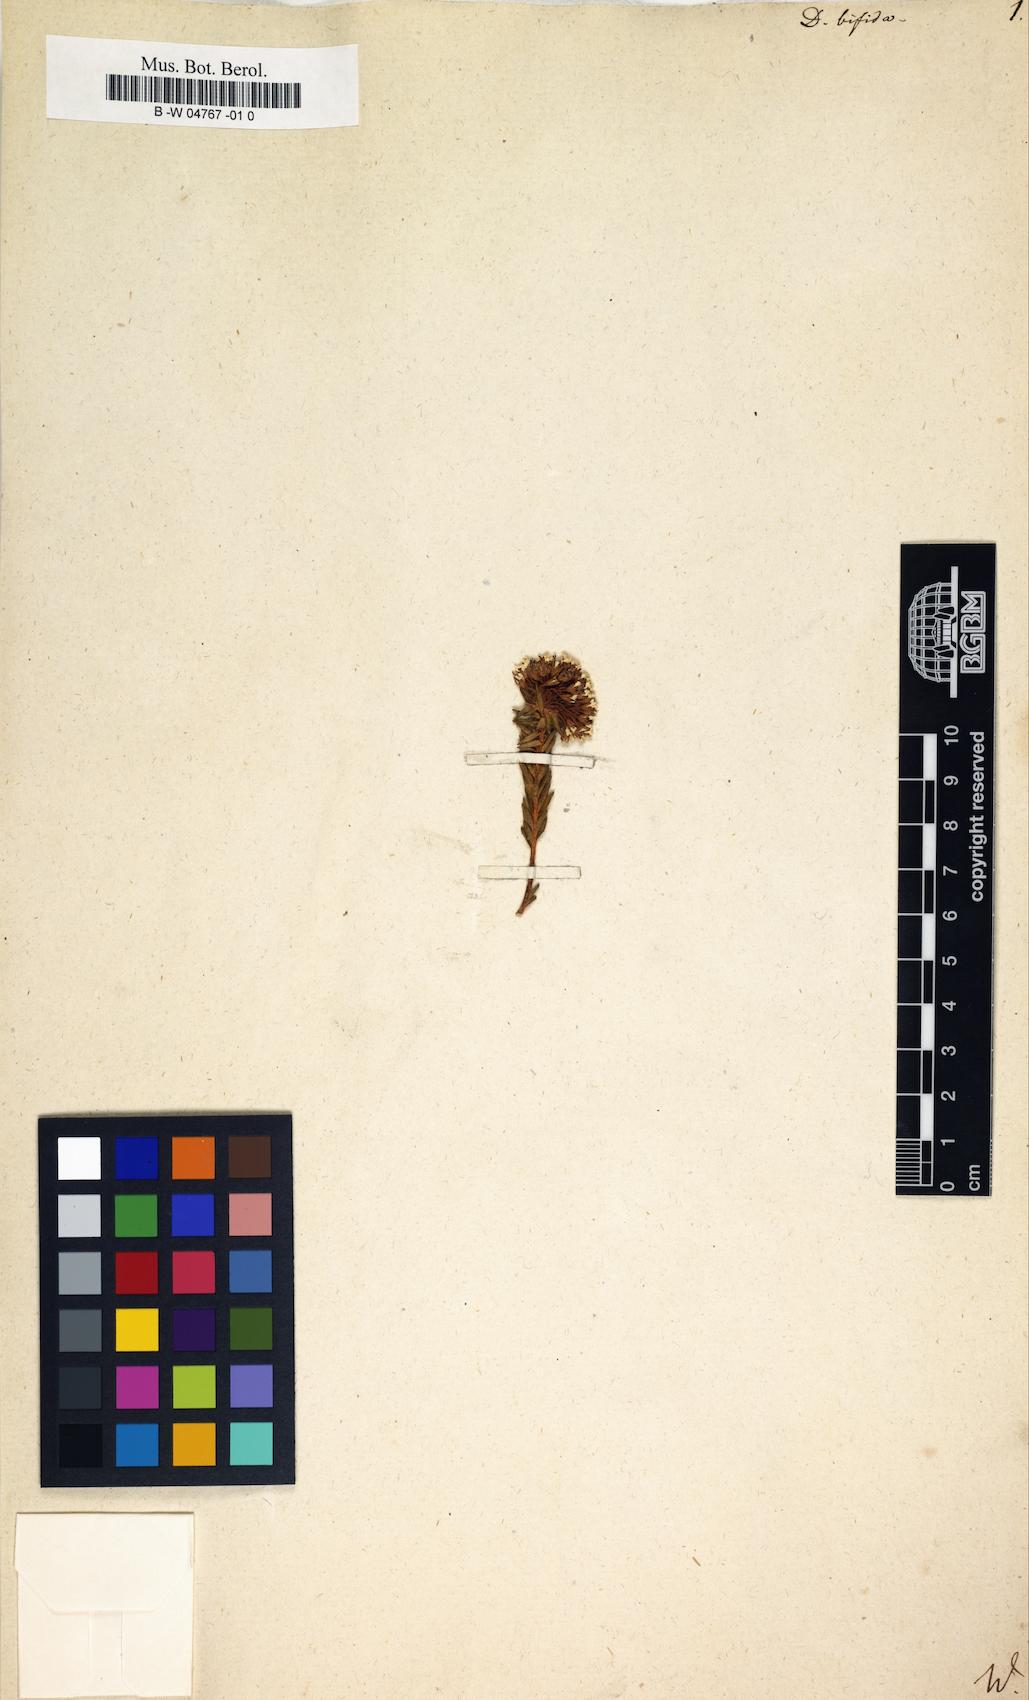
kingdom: Plantae
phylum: Tracheophyta
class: Magnoliopsida
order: Sapindales
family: Rutaceae
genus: Agathosma
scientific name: Agathosma bifida
